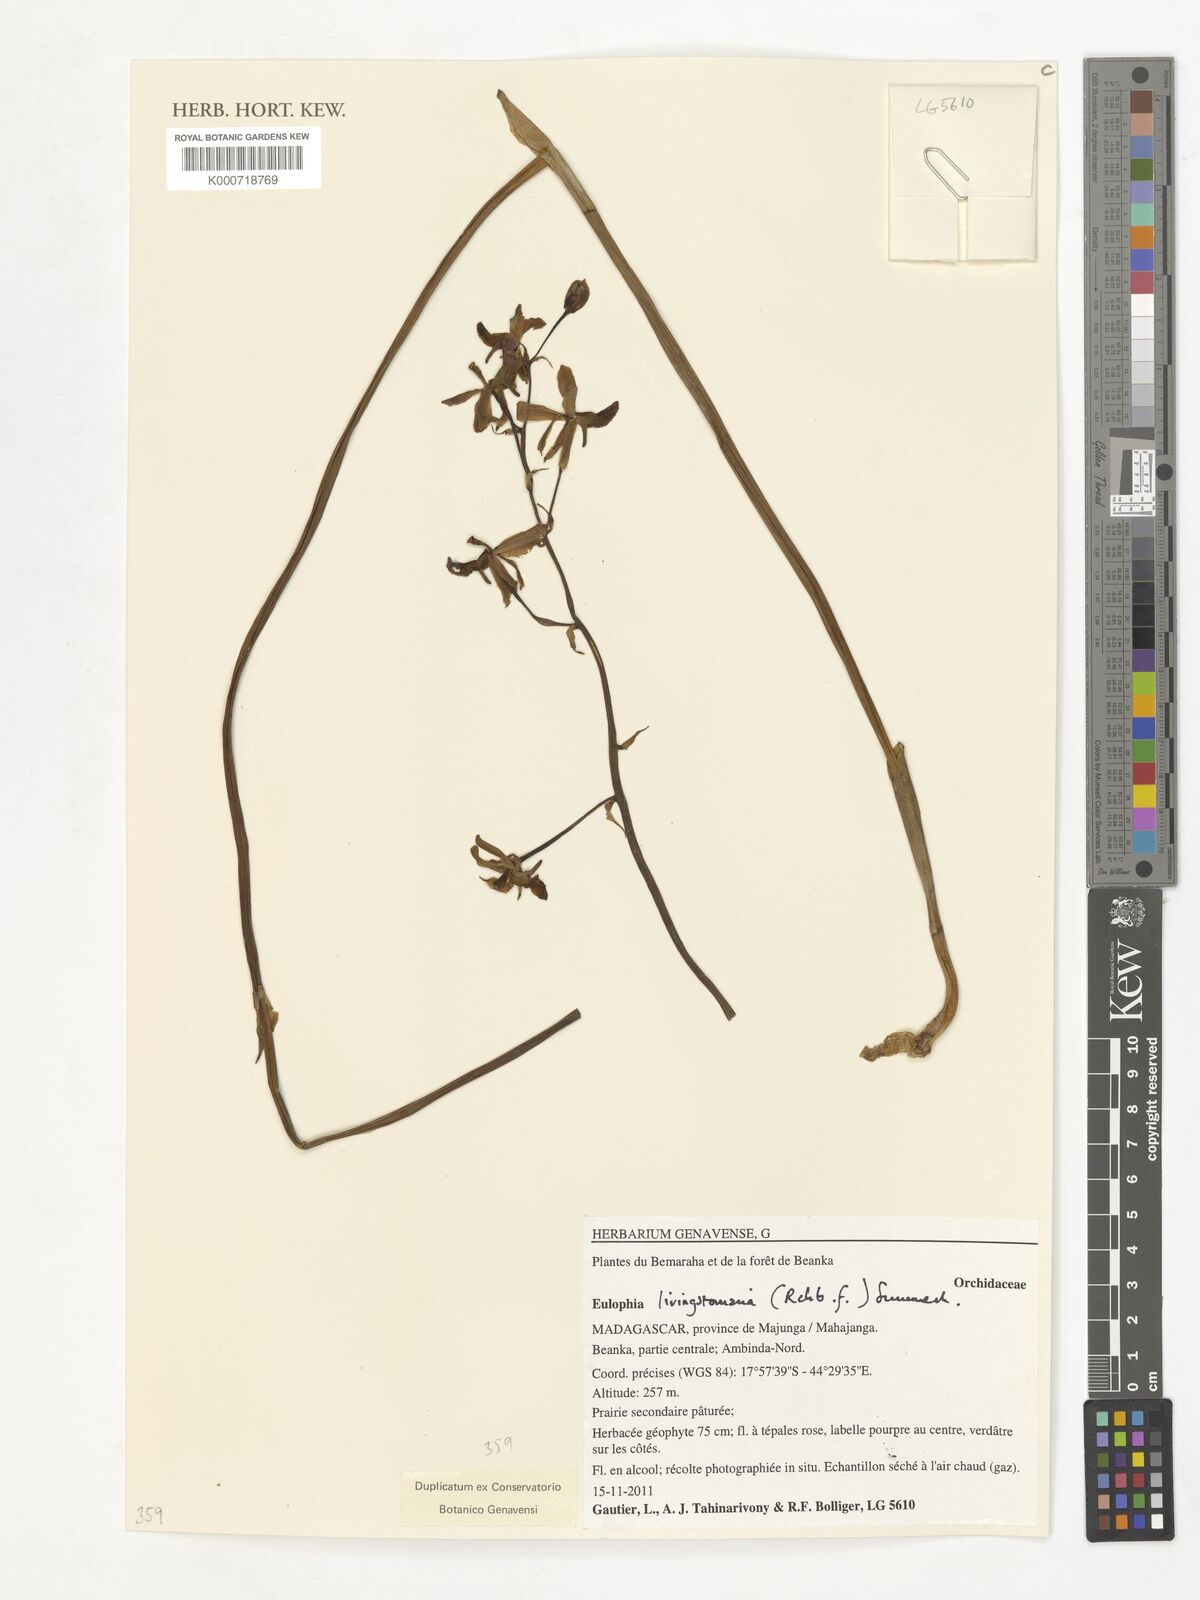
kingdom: Plantae
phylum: Tracheophyta
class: Liliopsida
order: Asparagales
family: Orchidaceae
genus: Eulophia
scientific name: Eulophia
